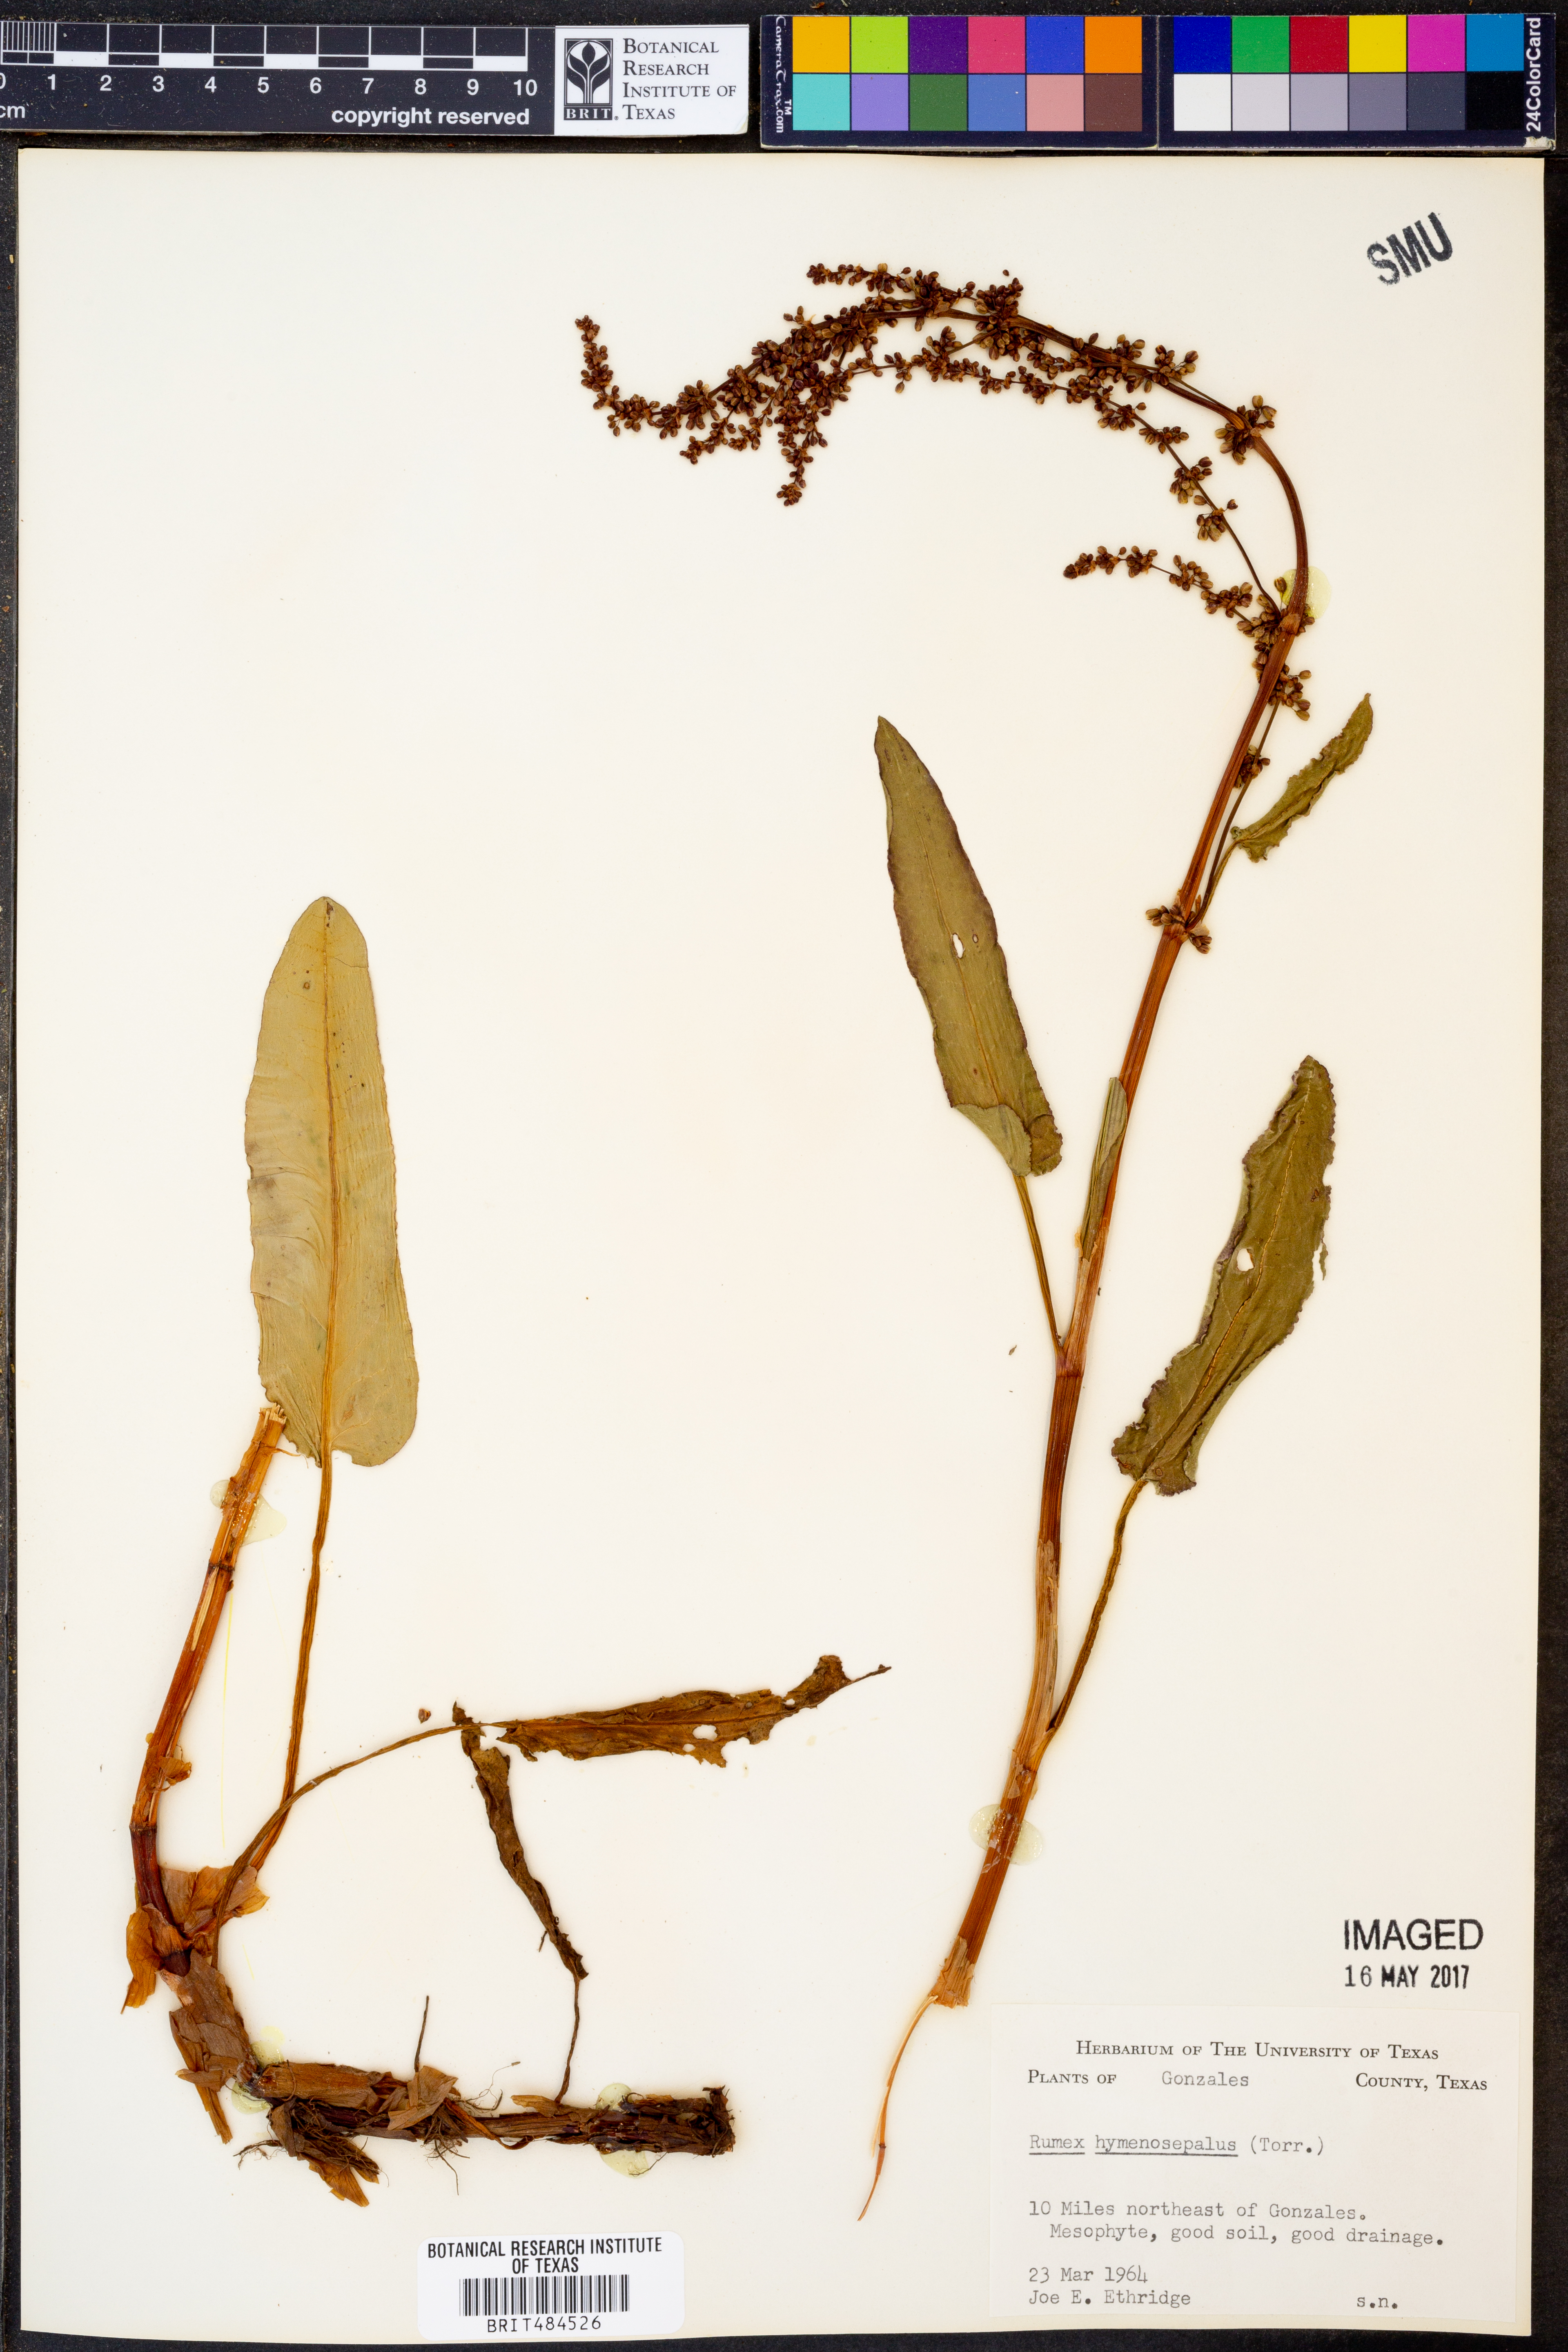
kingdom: Plantae
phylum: Tracheophyta
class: Magnoliopsida
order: Caryophyllales
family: Polygonaceae
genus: Rumex
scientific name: Rumex hymenosepalus
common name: Ganagra
